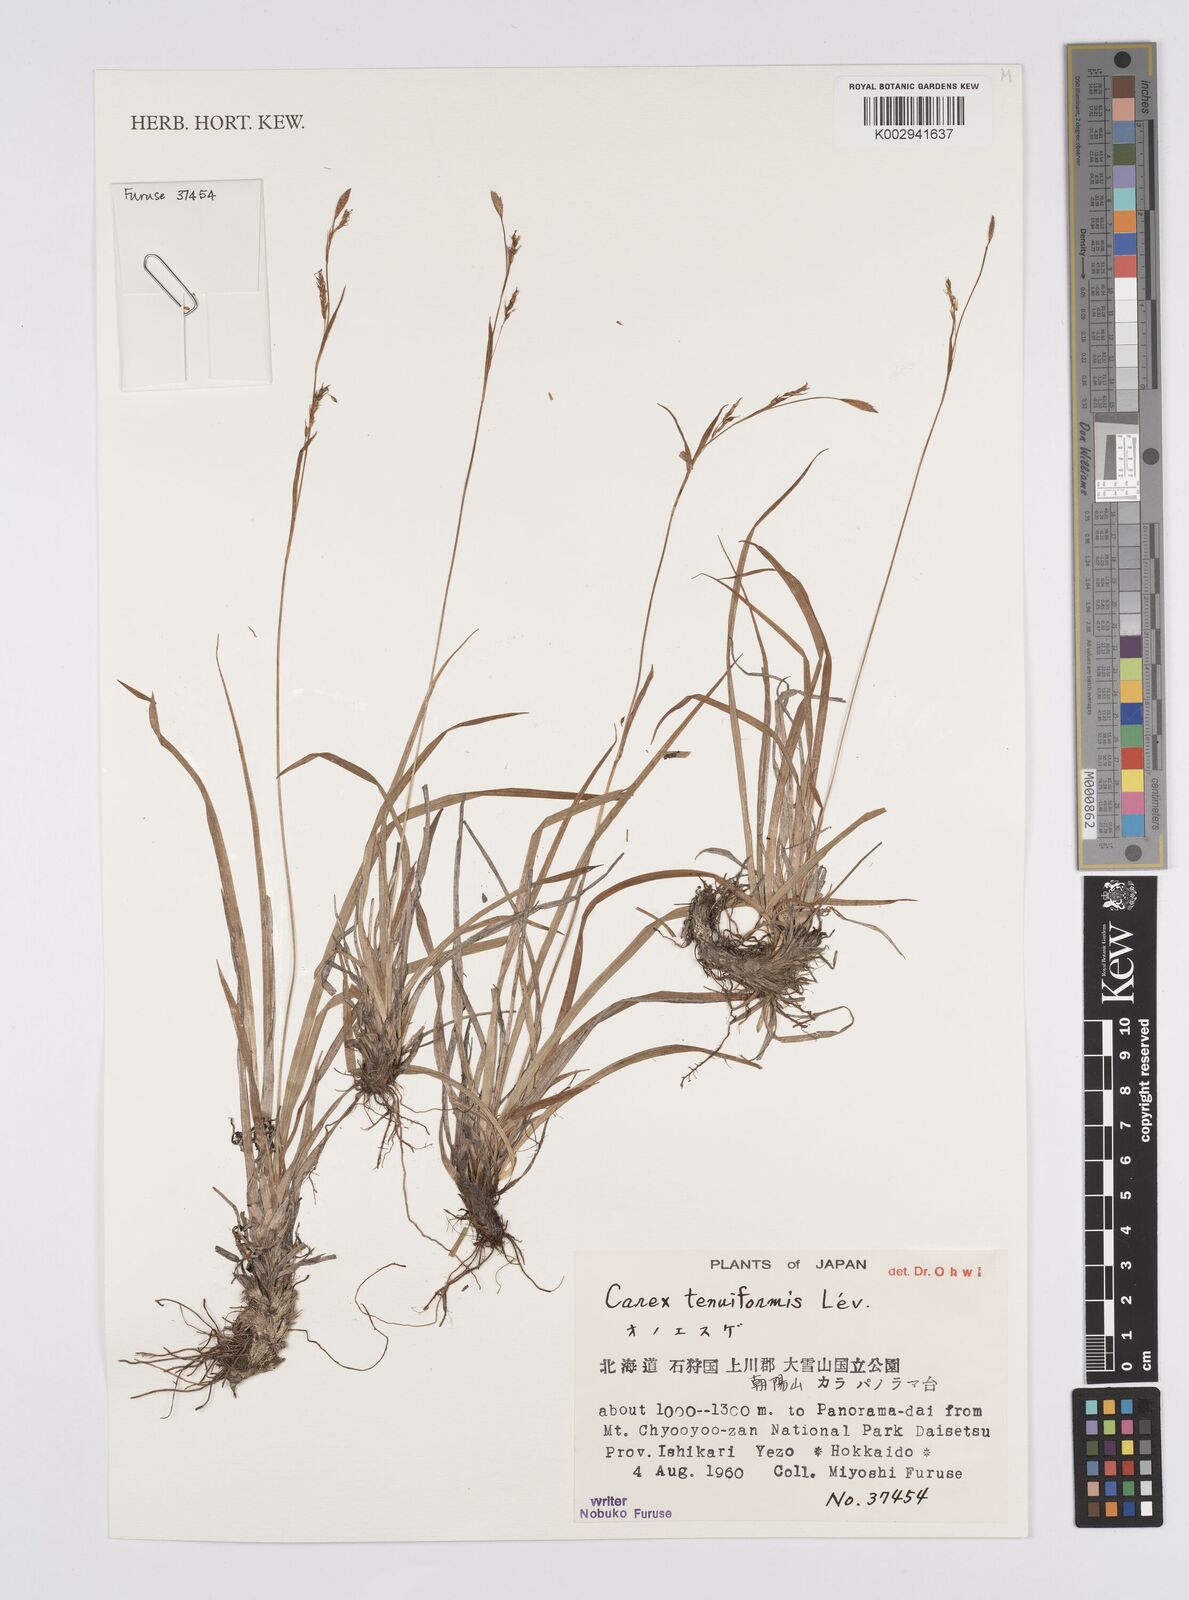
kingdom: Plantae
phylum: Tracheophyta
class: Liliopsida
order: Poales
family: Cyperaceae
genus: Carex
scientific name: Carex tenuiformis
